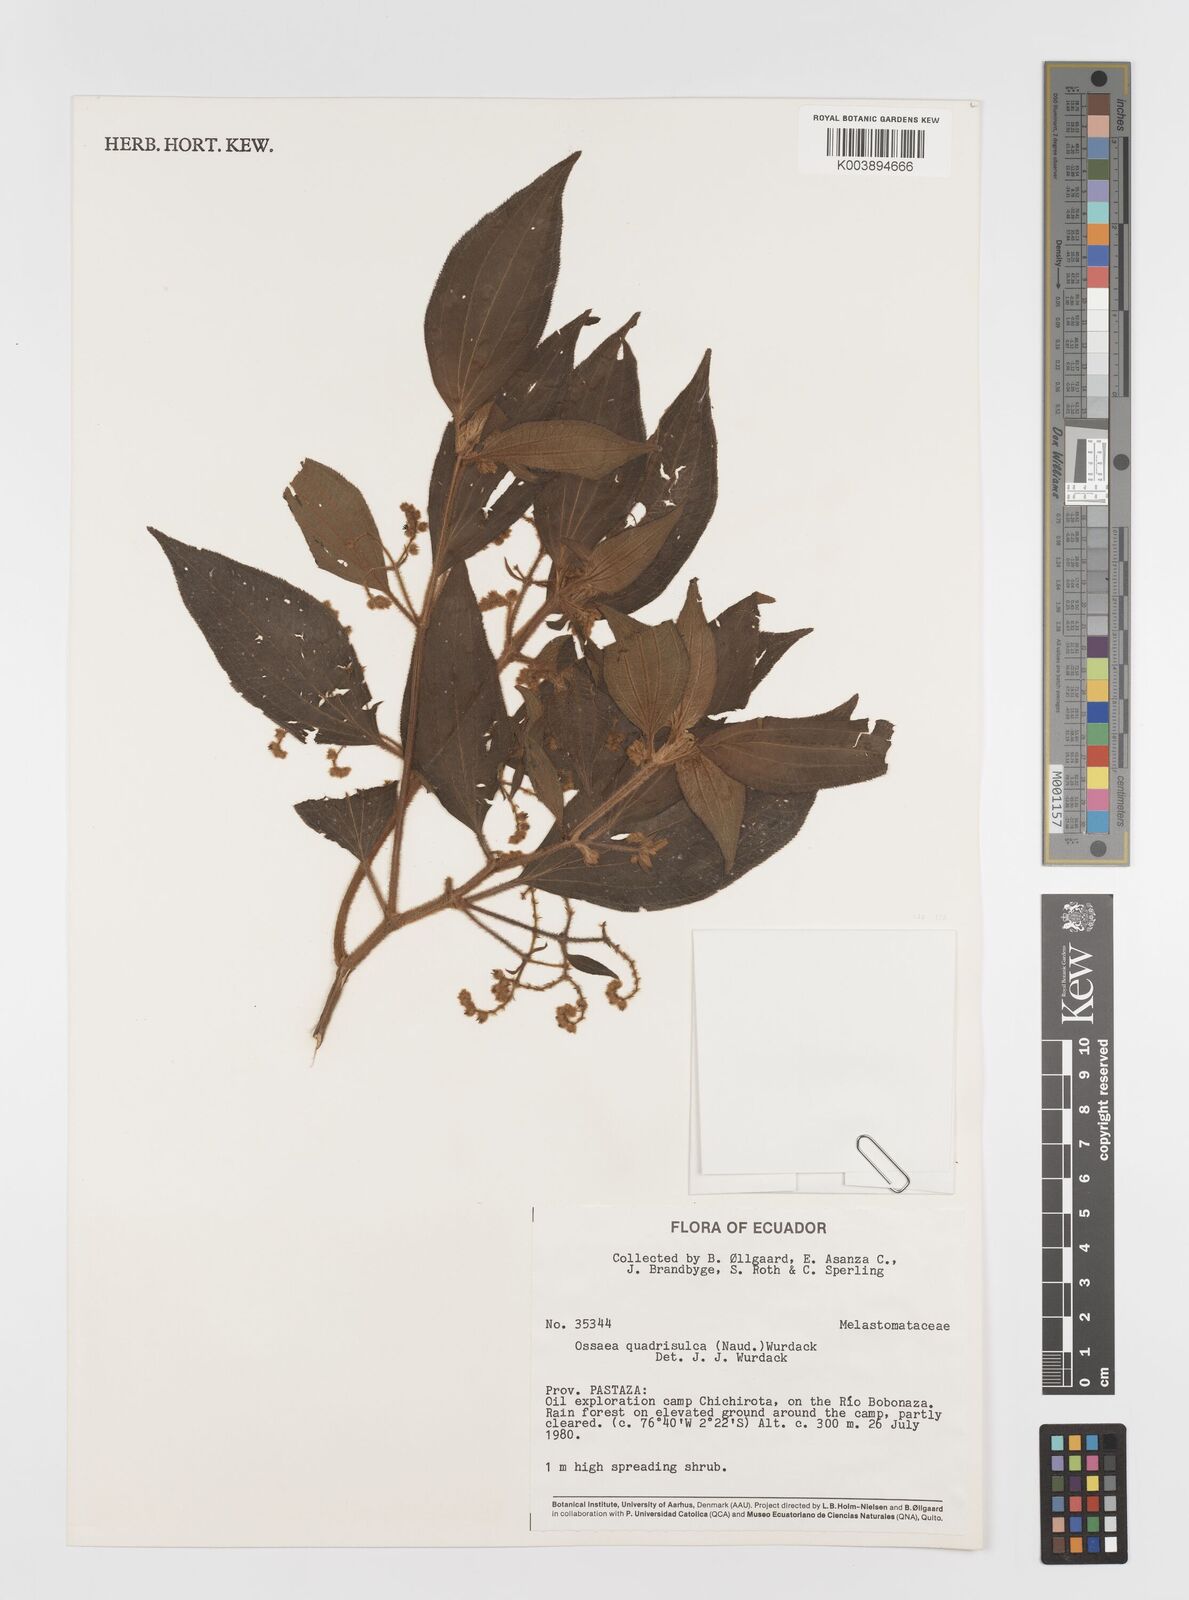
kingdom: Plantae
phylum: Tracheophyta
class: Magnoliopsida
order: Myrtales
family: Melastomataceae
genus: Miconia
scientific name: Miconia quadrisulca
